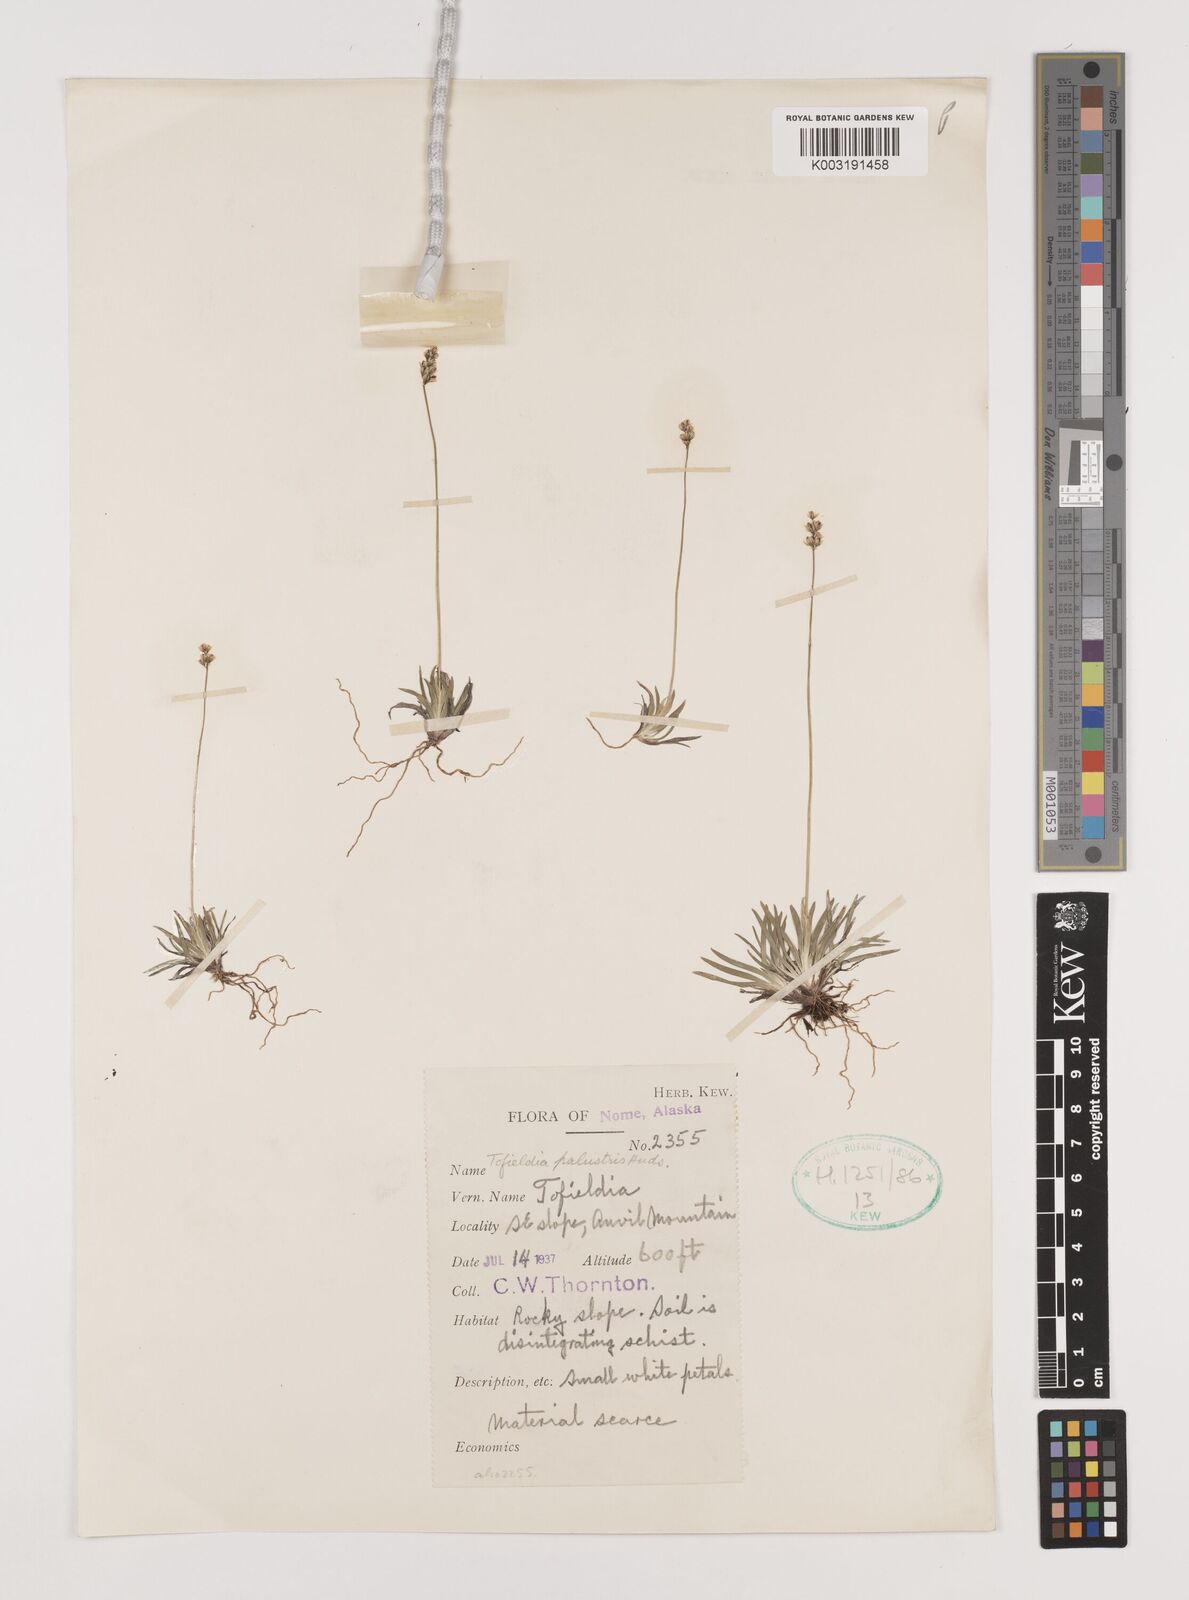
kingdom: Plantae
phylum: Tracheophyta
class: Liliopsida
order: Alismatales
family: Tofieldiaceae
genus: Tofieldia
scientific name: Tofieldia calyculata
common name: German-asphodel
